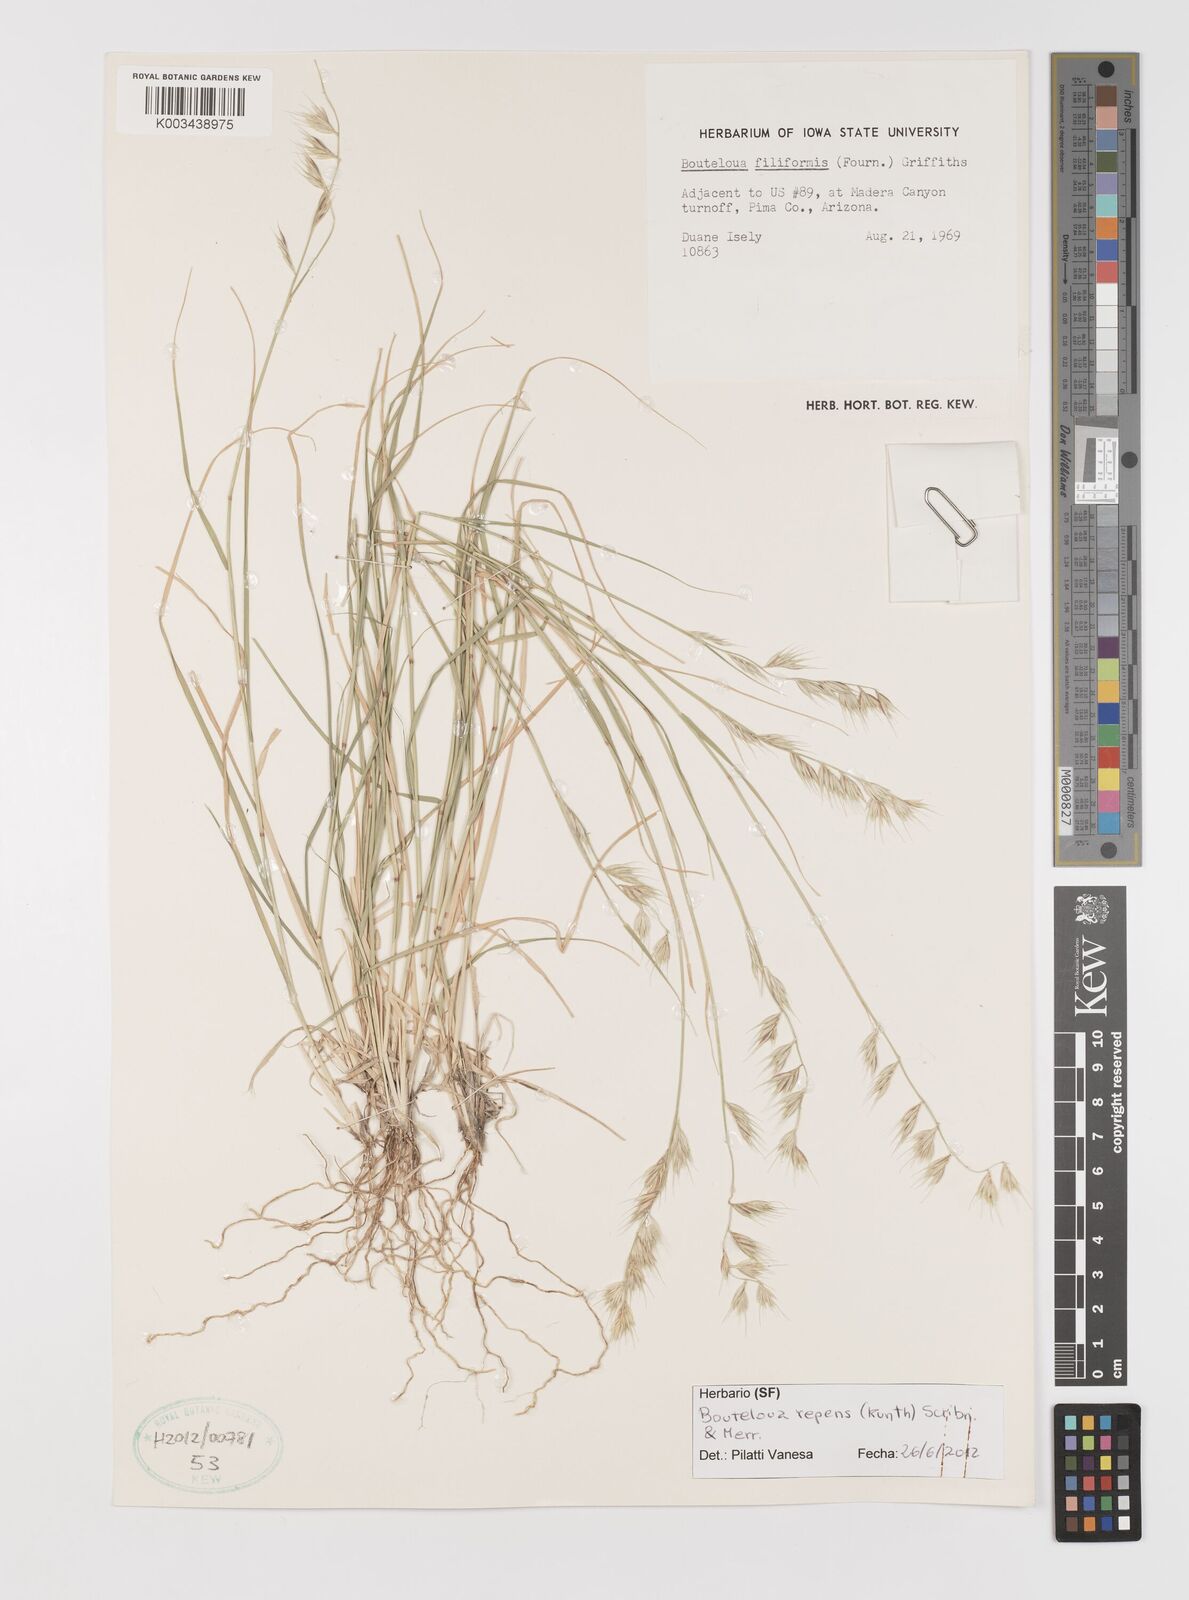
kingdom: Plantae
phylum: Tracheophyta
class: Liliopsida
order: Poales
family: Poaceae
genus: Bouteloua
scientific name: Bouteloua repens
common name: Slender grama
